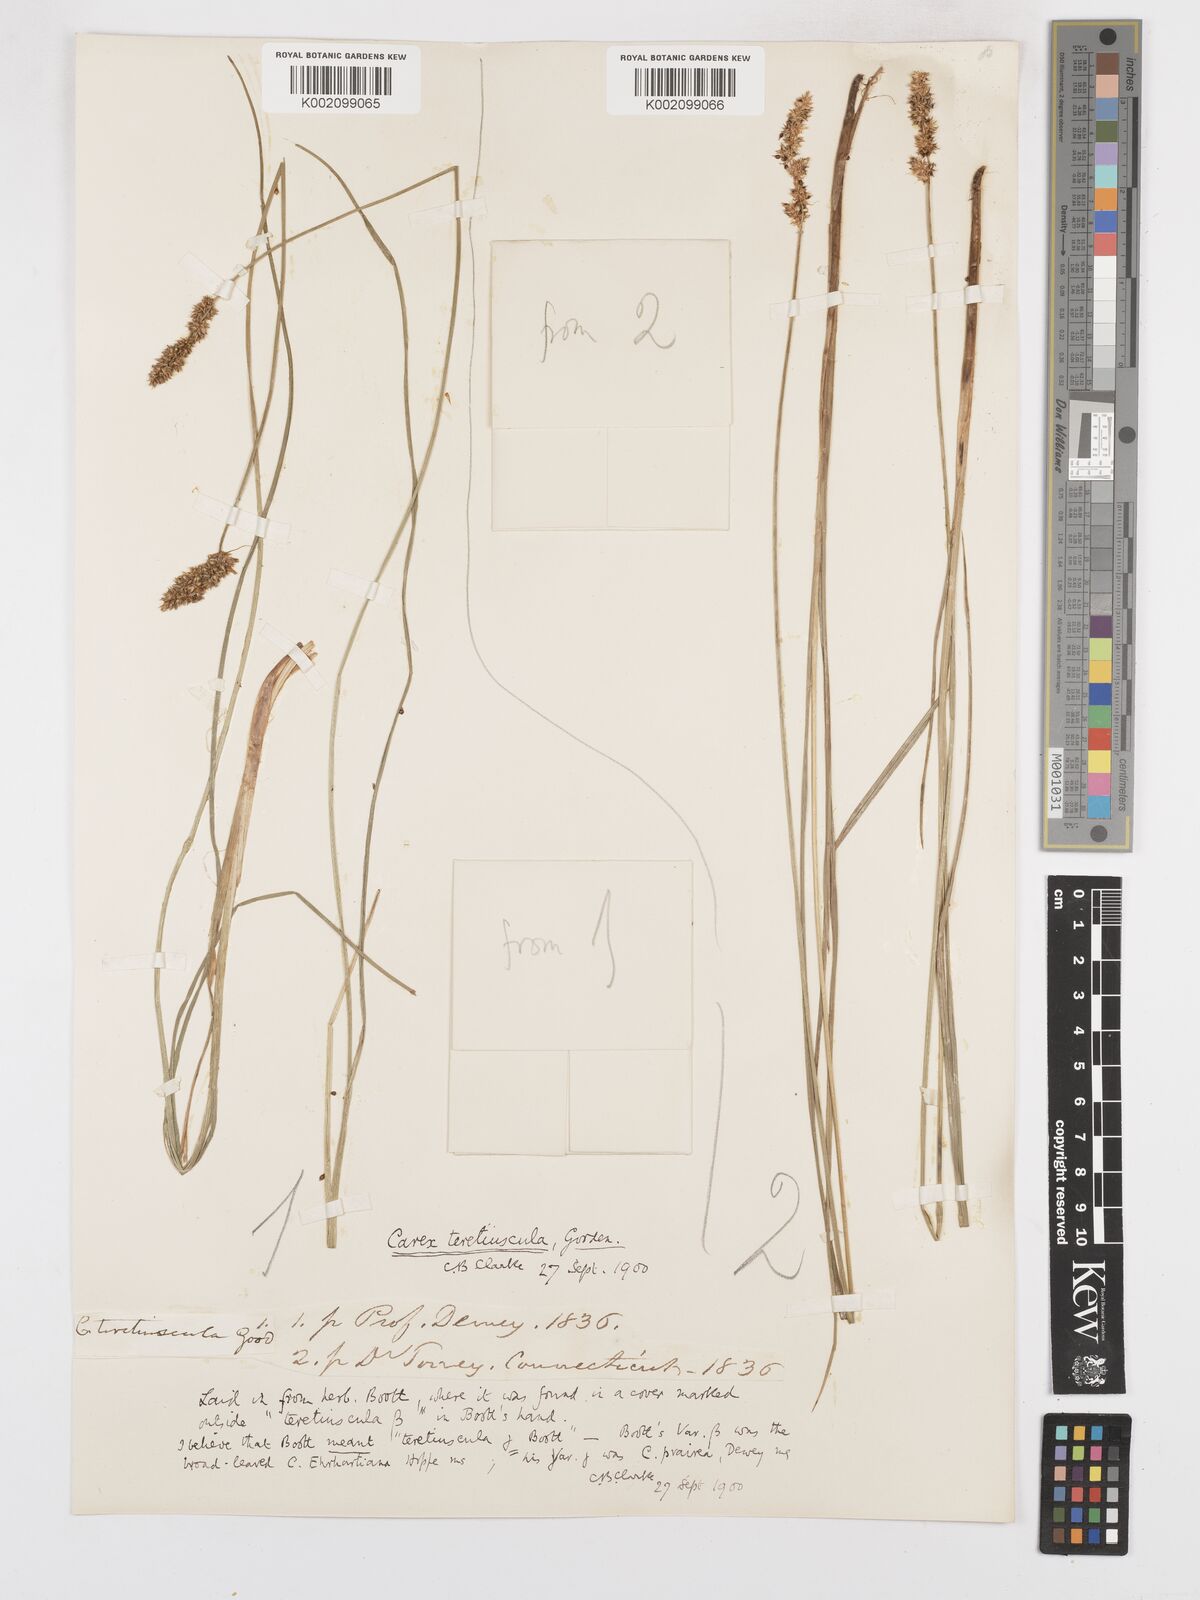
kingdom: Plantae
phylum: Tracheophyta
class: Liliopsida
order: Poales
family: Cyperaceae
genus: Carex
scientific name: Carex diandra
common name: Lesser tussock-sedge
